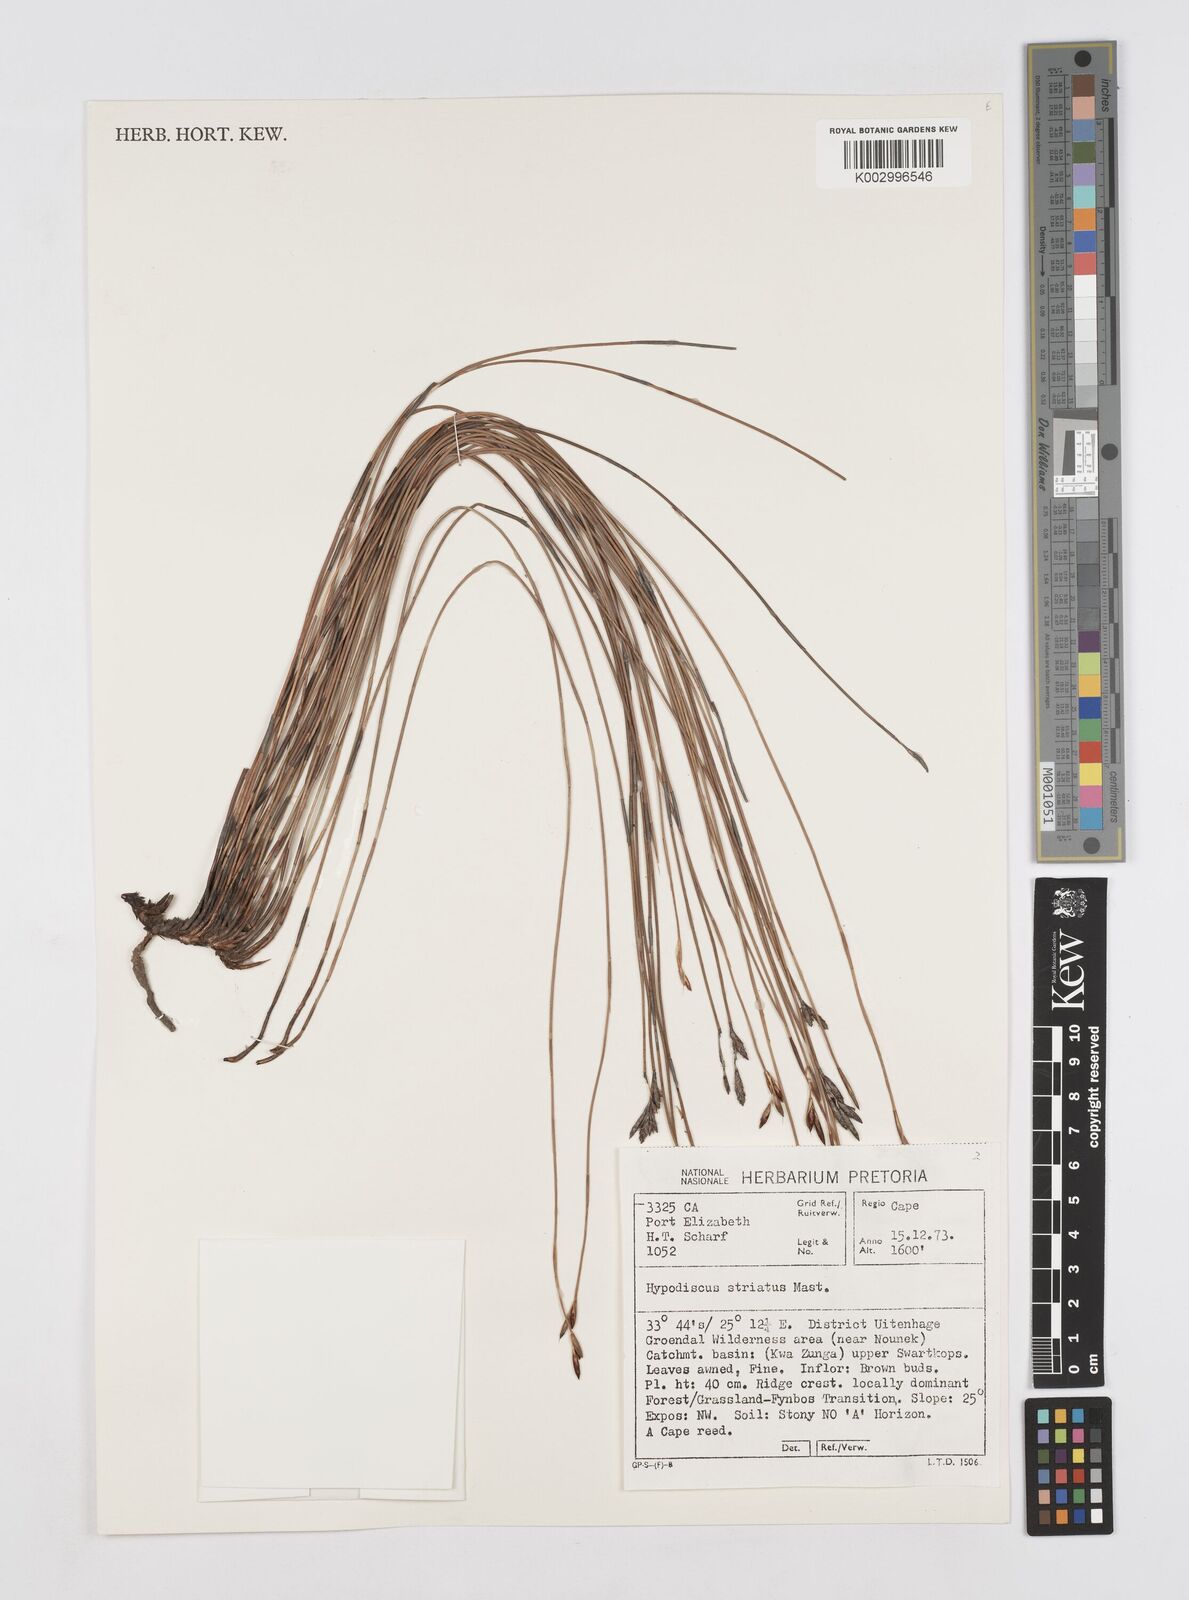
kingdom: Plantae
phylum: Tracheophyta
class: Liliopsida
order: Poales
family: Restionaceae
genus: Hypodiscus
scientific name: Hypodiscus striatus
